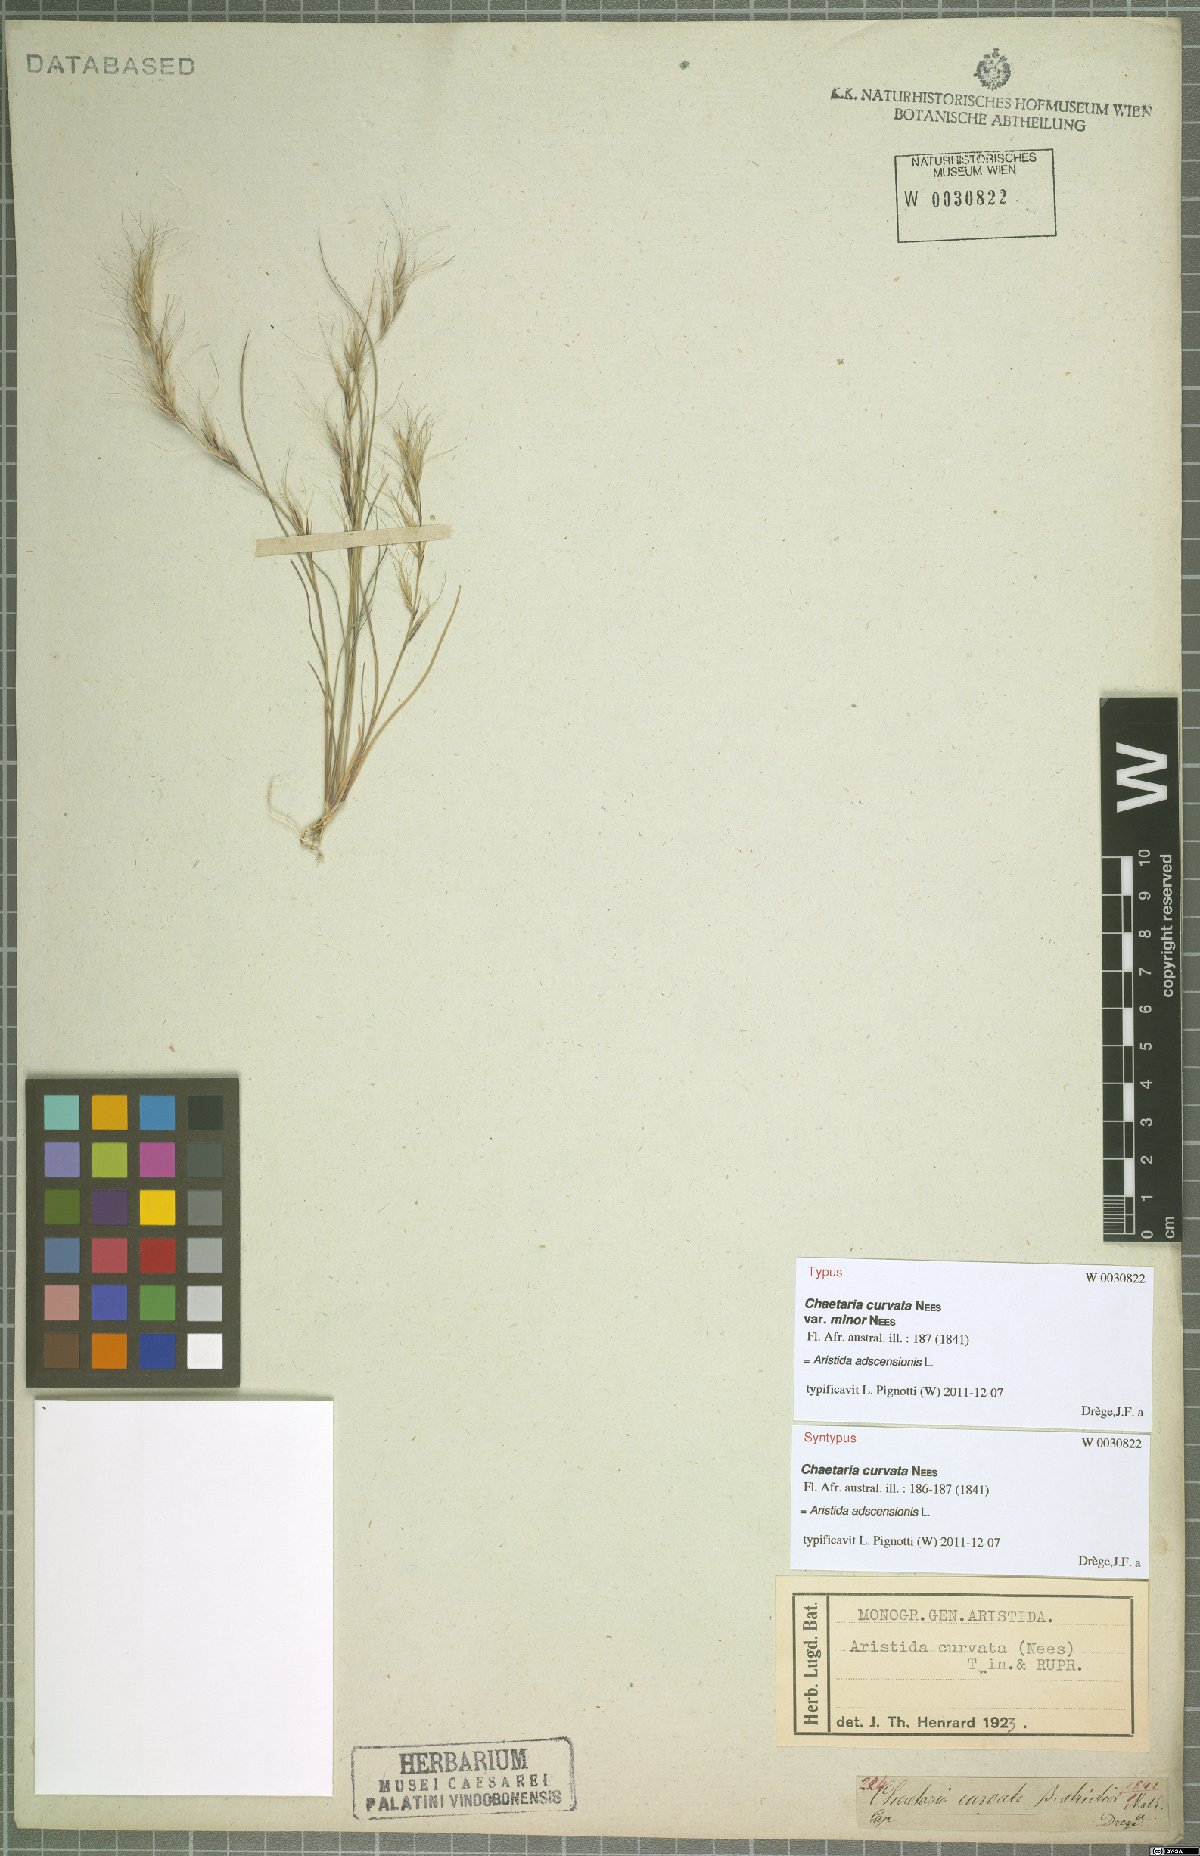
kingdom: Plantae
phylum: Tracheophyta
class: Liliopsida
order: Poales
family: Poaceae
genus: Aristida
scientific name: Aristida adscensionis
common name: Sixweeks threeawn
